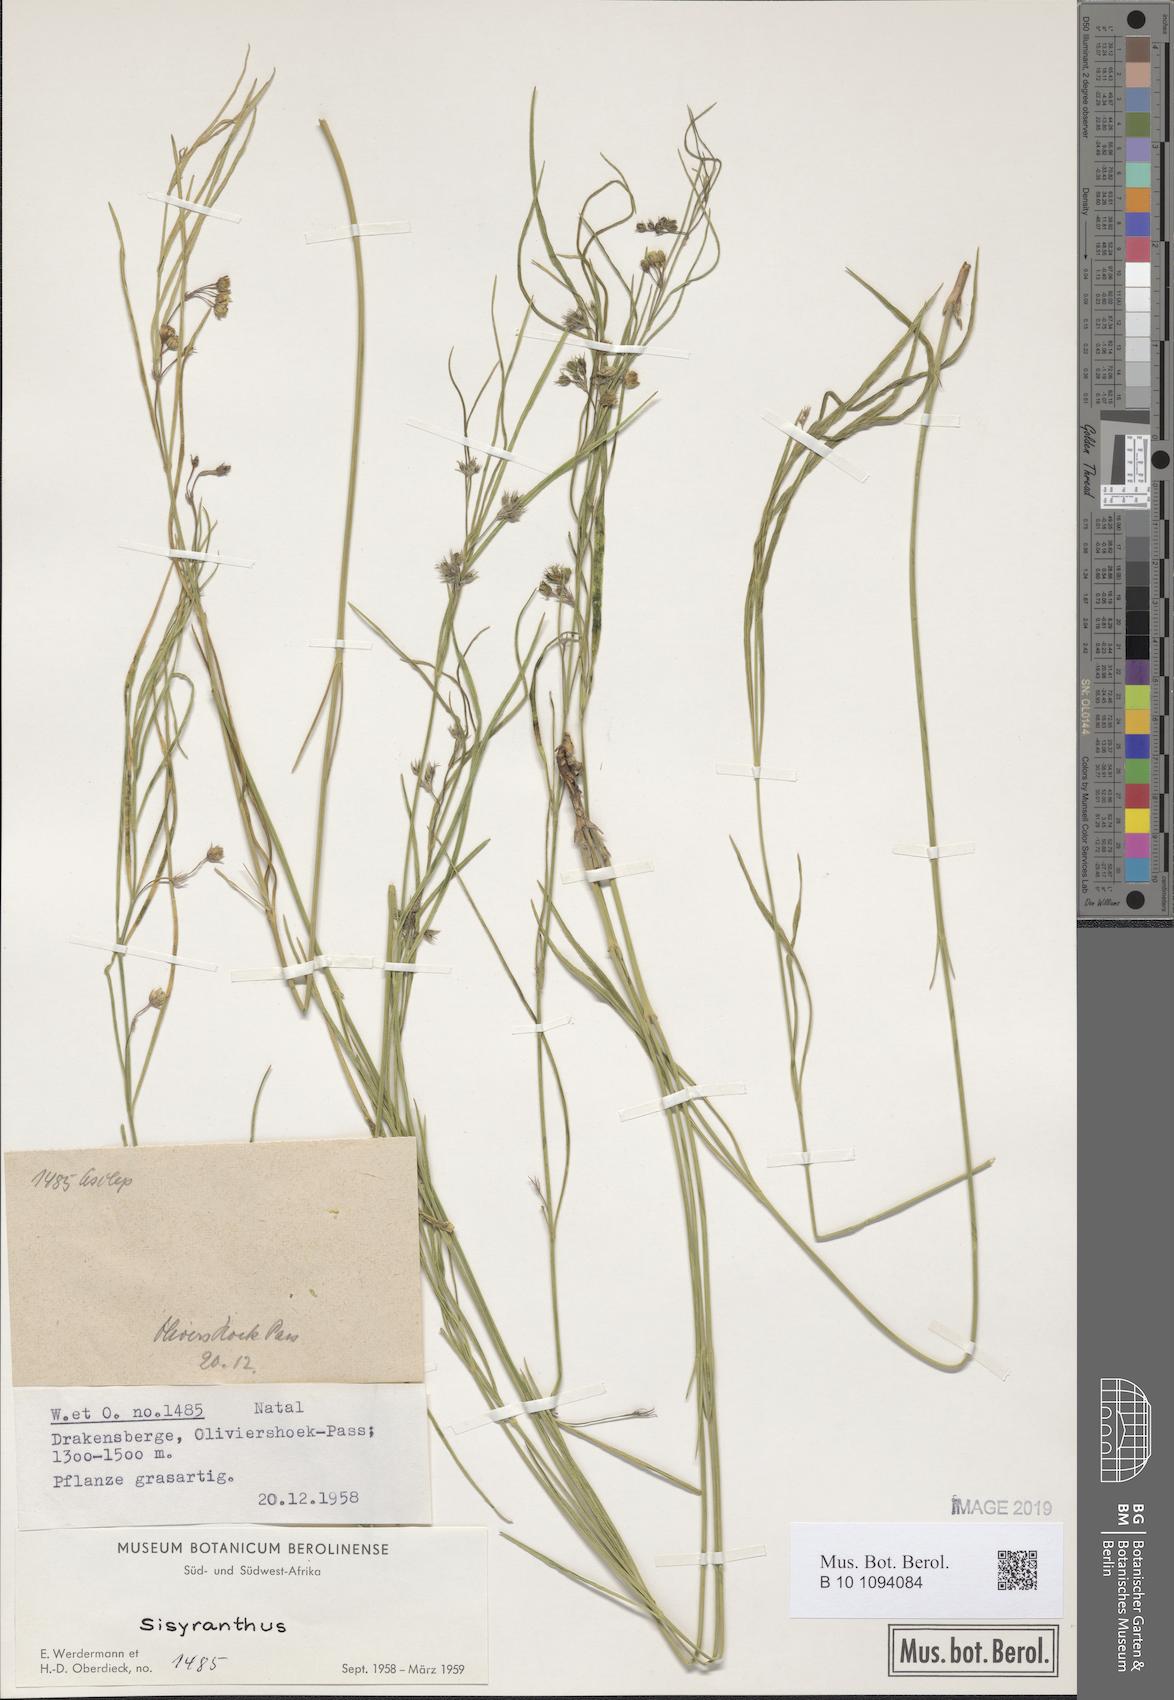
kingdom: Plantae
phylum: Tracheophyta
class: Magnoliopsida
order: Gentianales
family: Apocynaceae
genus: Sisyranthus
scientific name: Sisyranthus
